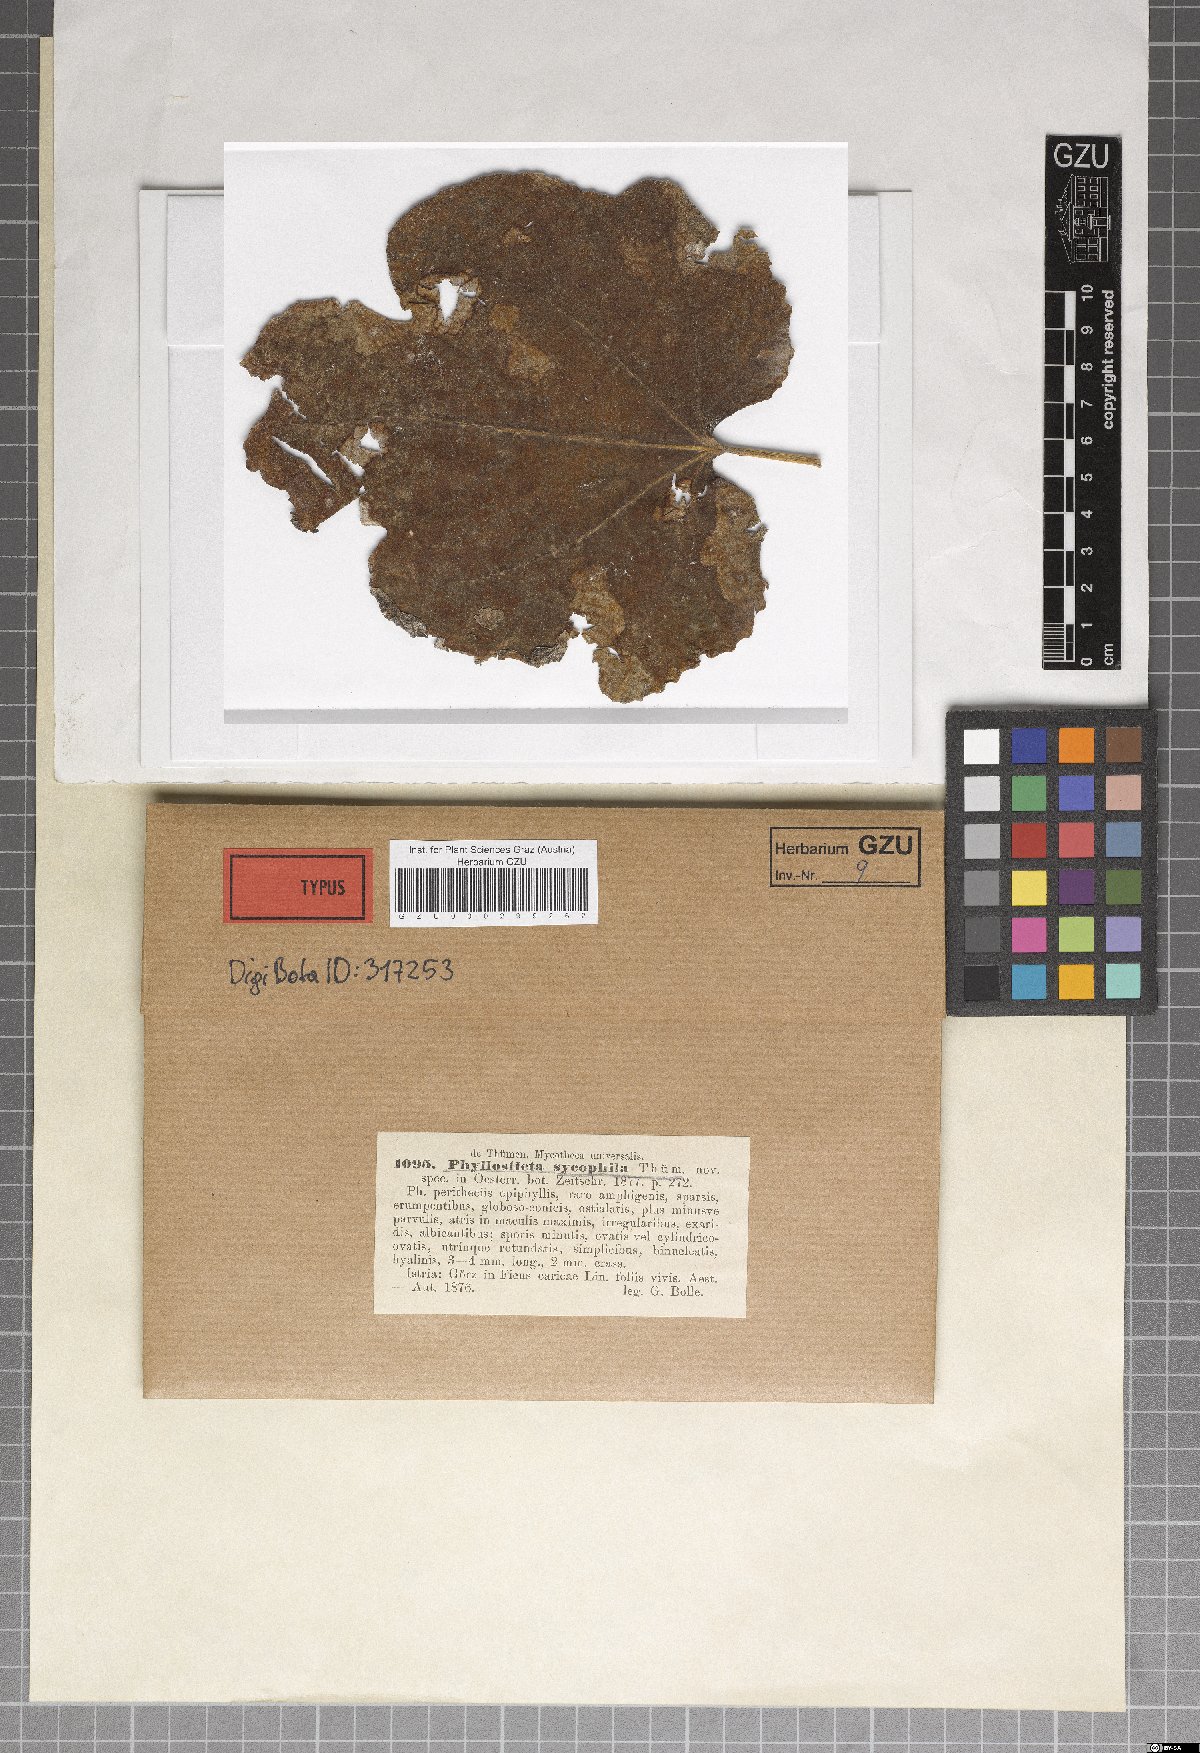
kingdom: Fungi
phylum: Ascomycota
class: Dothideomycetes
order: Botryosphaeriales
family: Botryosphaeriaceae
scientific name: Botryosphaeriaceae
